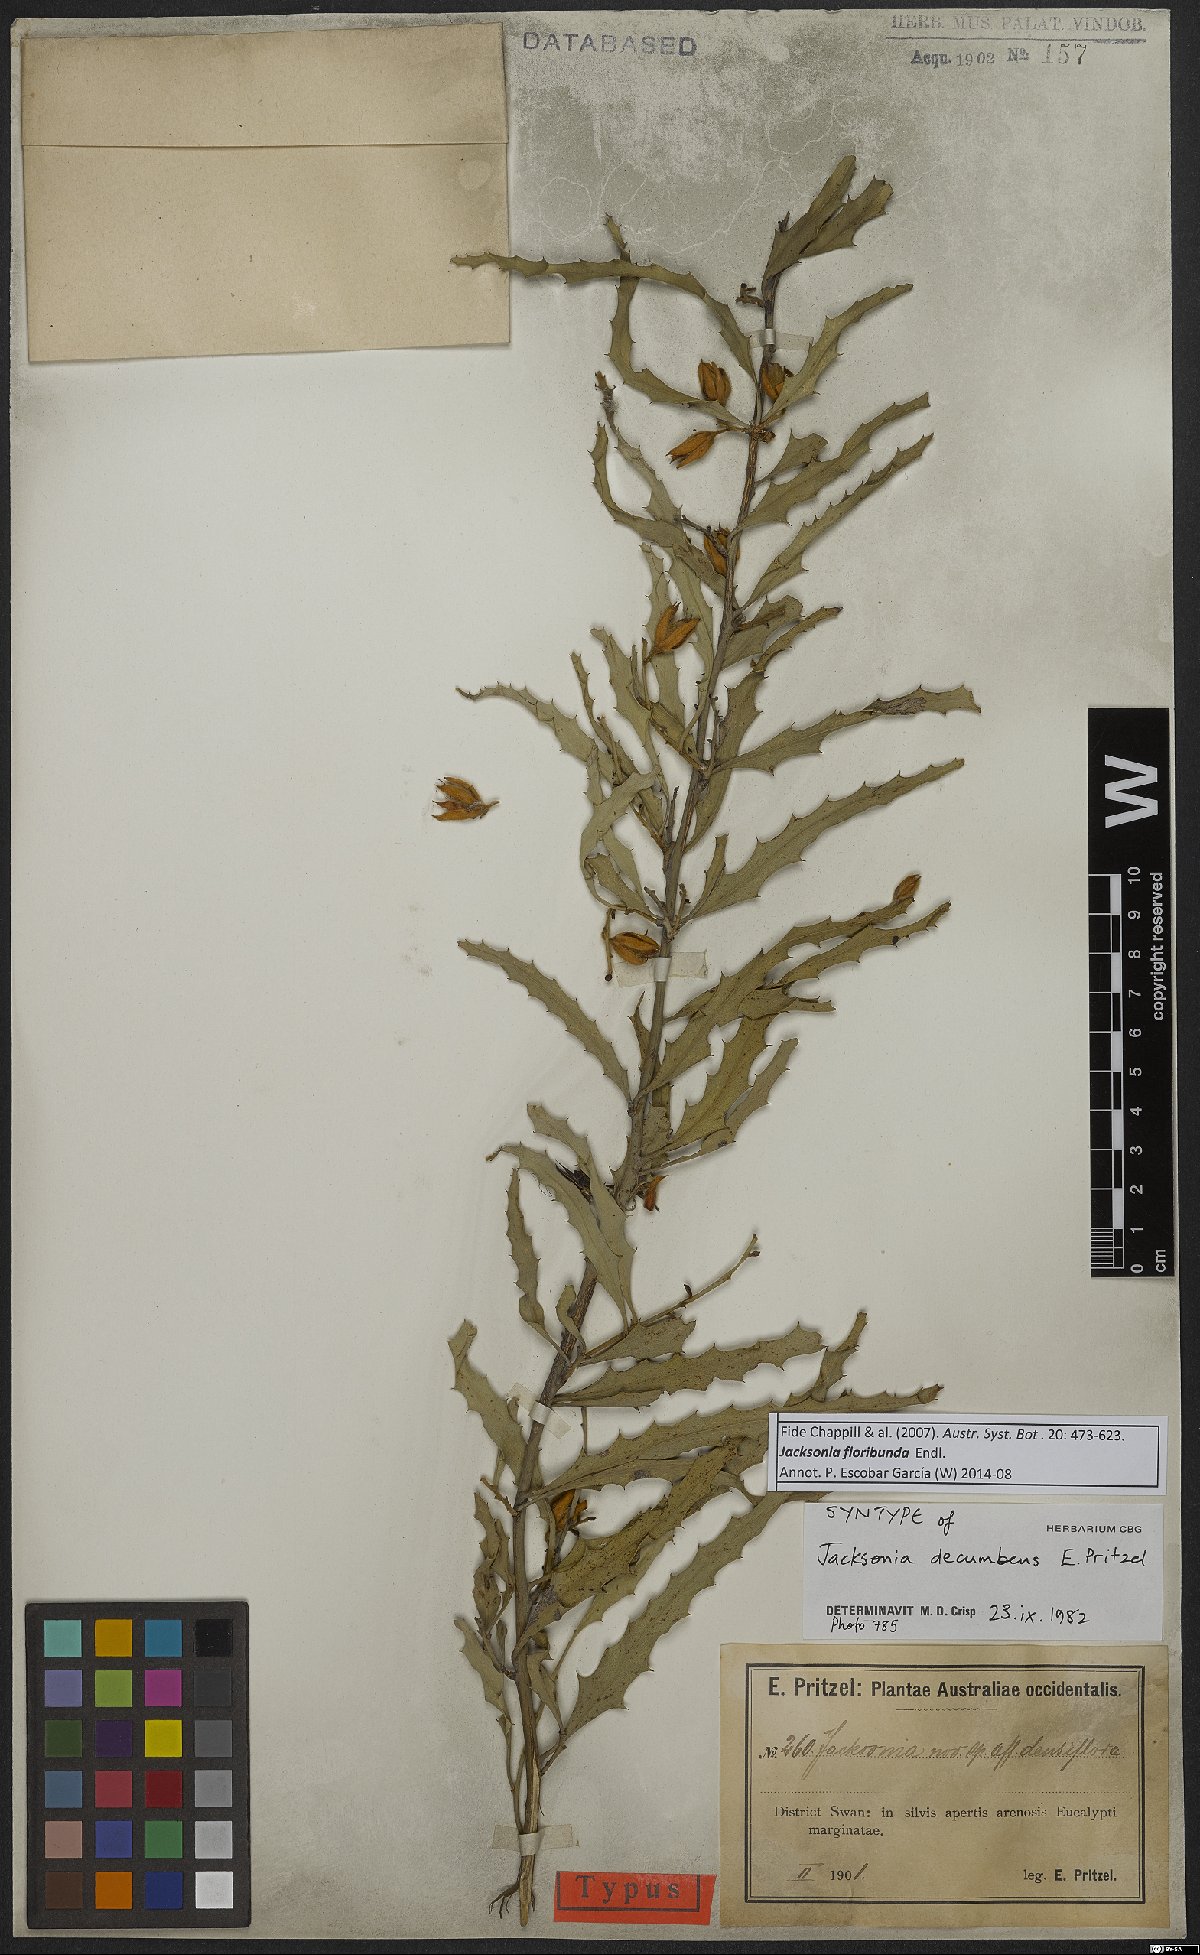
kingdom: Plantae
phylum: Tracheophyta
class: Magnoliopsida
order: Fabales
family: Fabaceae
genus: Jacksonia
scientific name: Jacksonia floribunda
